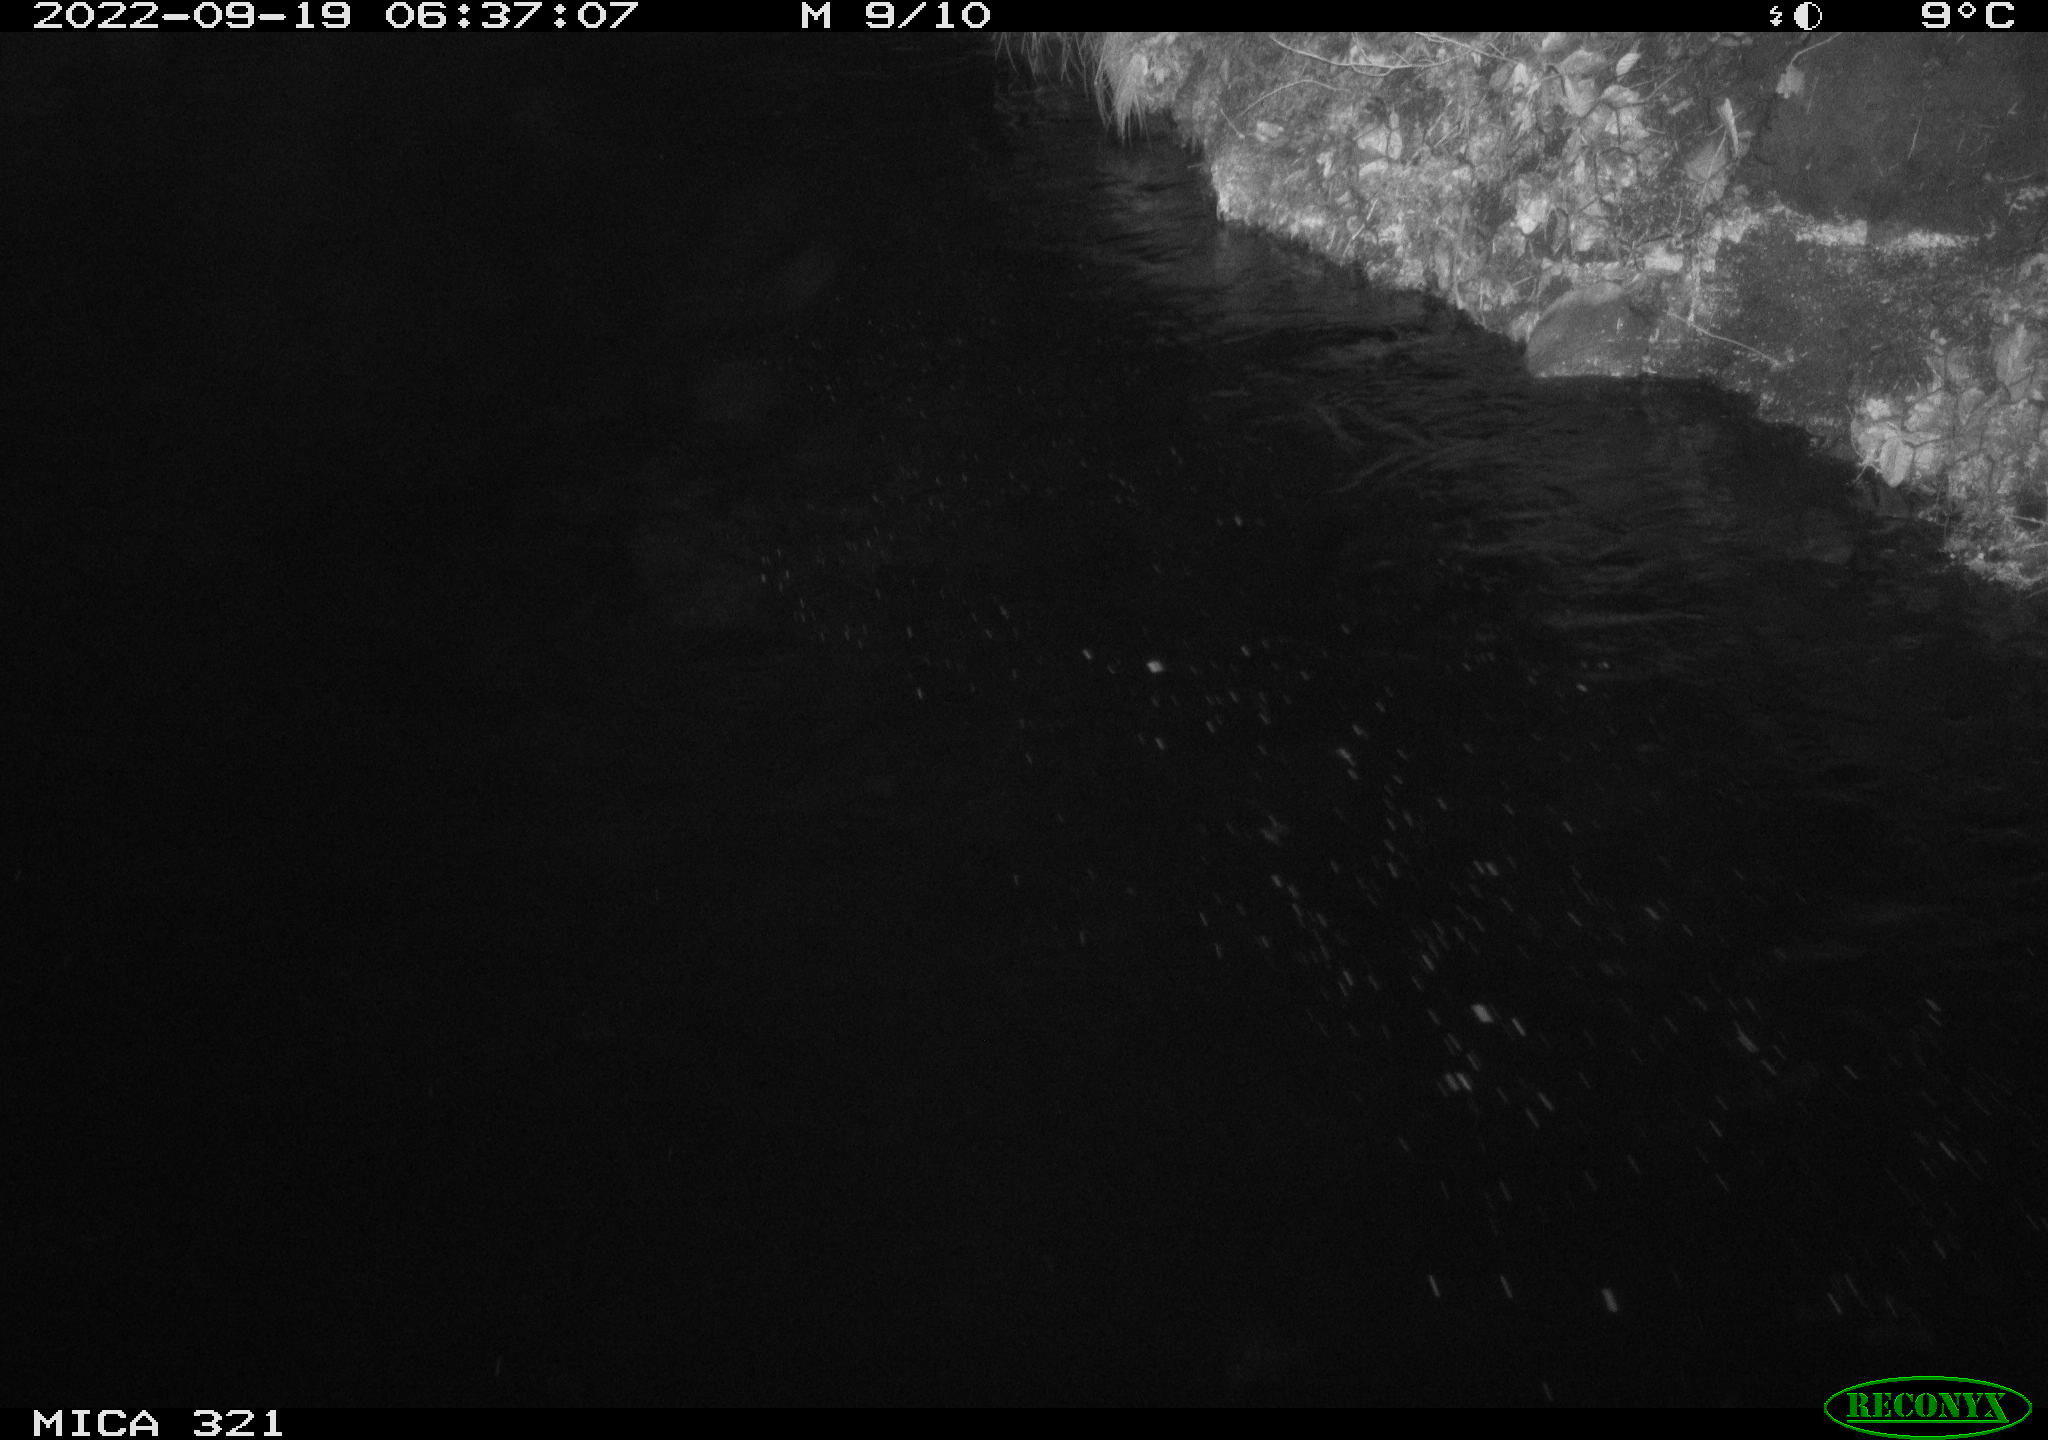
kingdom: Animalia
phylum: Chordata
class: Aves
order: Anseriformes
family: Anatidae
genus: Anas
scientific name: Anas
